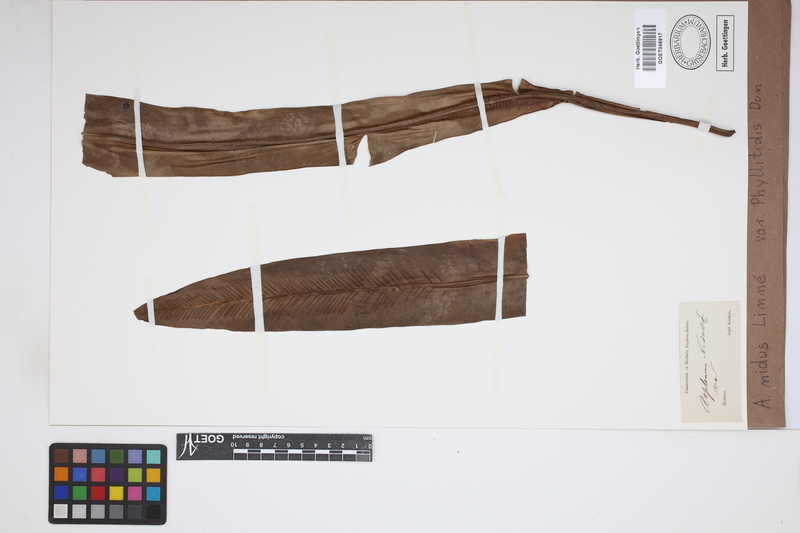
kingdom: Plantae
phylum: Tracheophyta
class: Polypodiopsida
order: Polypodiales
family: Aspleniaceae
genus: Asplenium
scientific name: Asplenium phyllitidis
